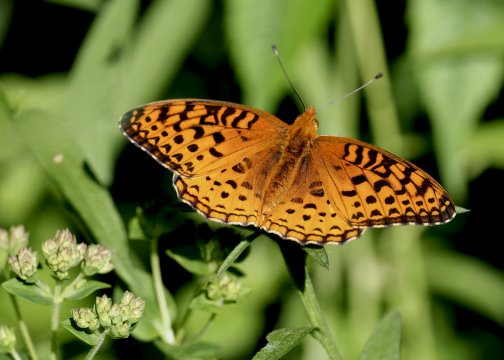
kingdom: Animalia
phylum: Arthropoda
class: Insecta
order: Lepidoptera
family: Nymphalidae
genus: Speyeria
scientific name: Speyeria aphrodite
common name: Aphrodite Fritillary
